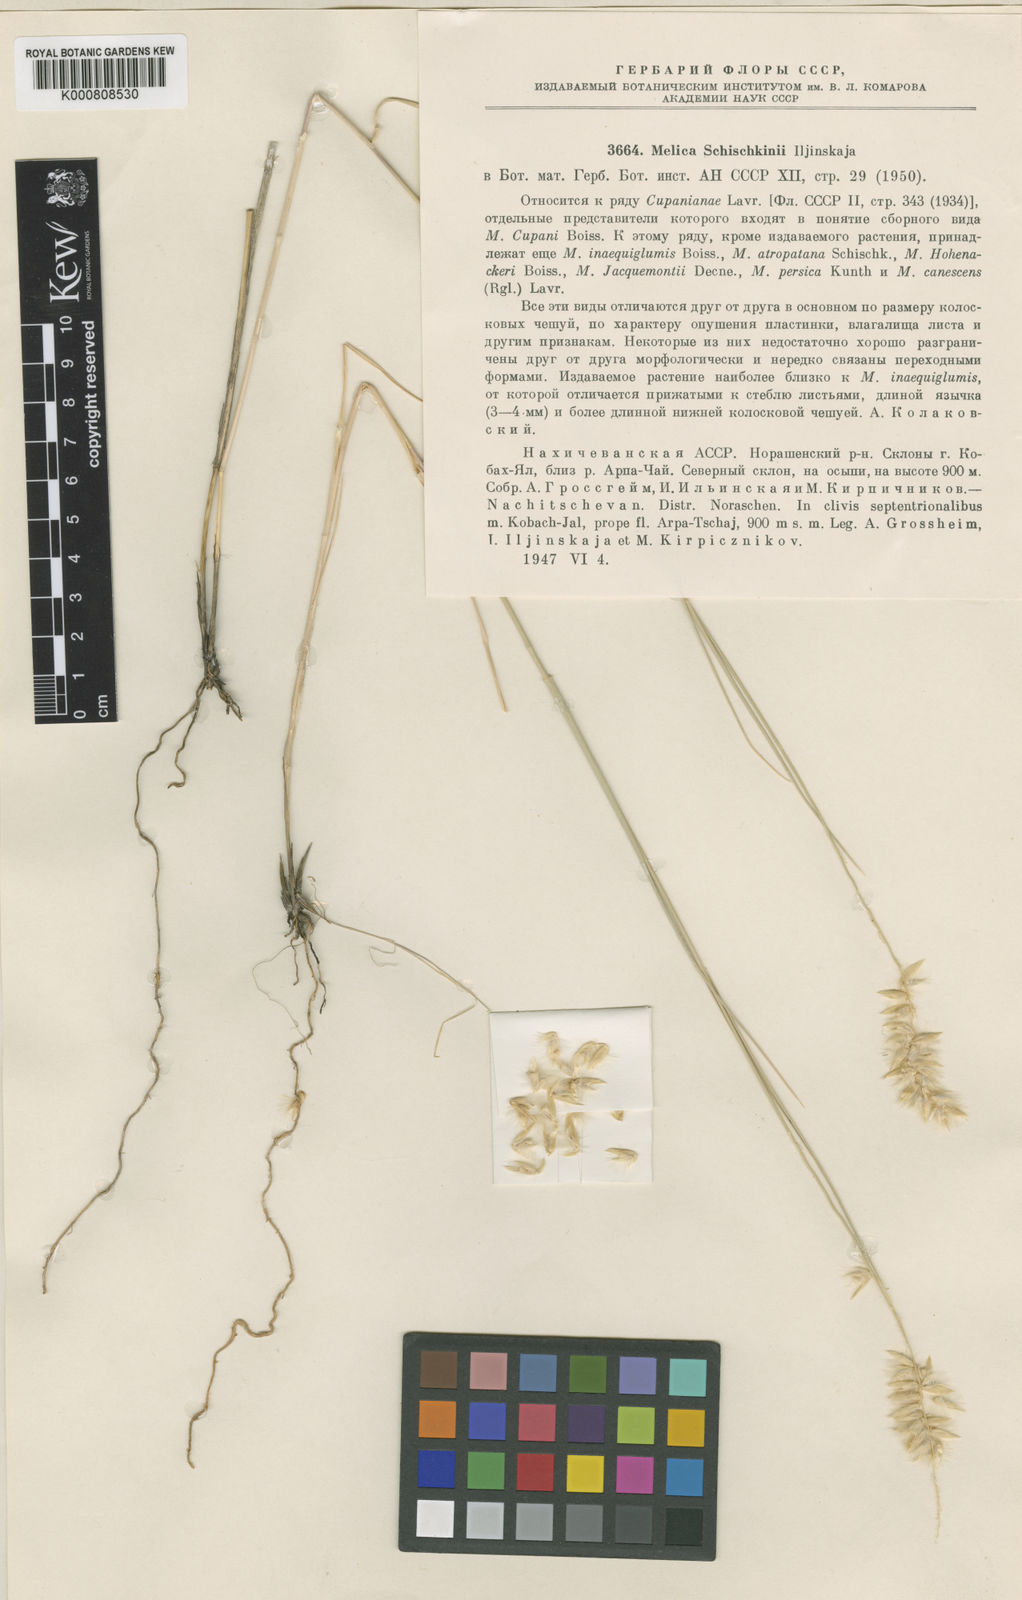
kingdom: Plantae
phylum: Tracheophyta
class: Liliopsida
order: Poales
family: Poaceae
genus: Melica
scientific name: Melica persica
